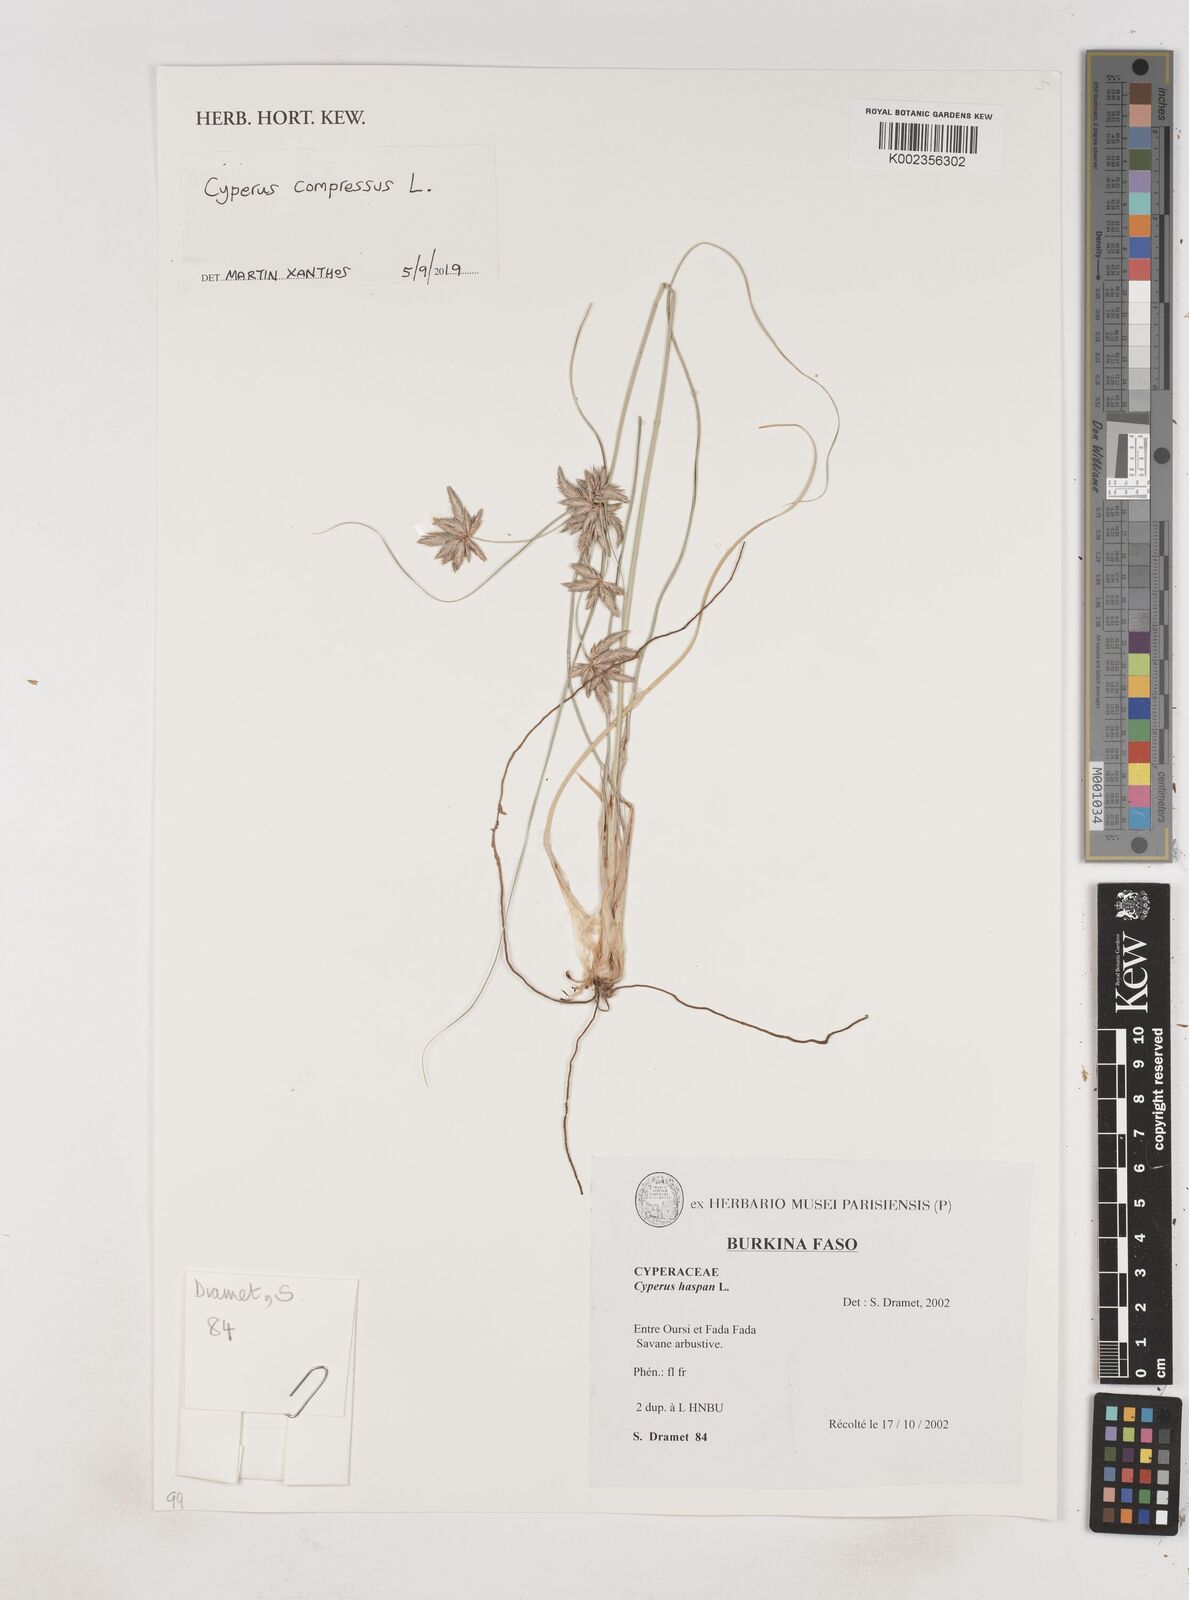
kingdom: Plantae
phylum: Tracheophyta
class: Liliopsida
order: Poales
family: Cyperaceae
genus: Cyperus
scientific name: Cyperus compressus
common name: Poorland flatsedge
